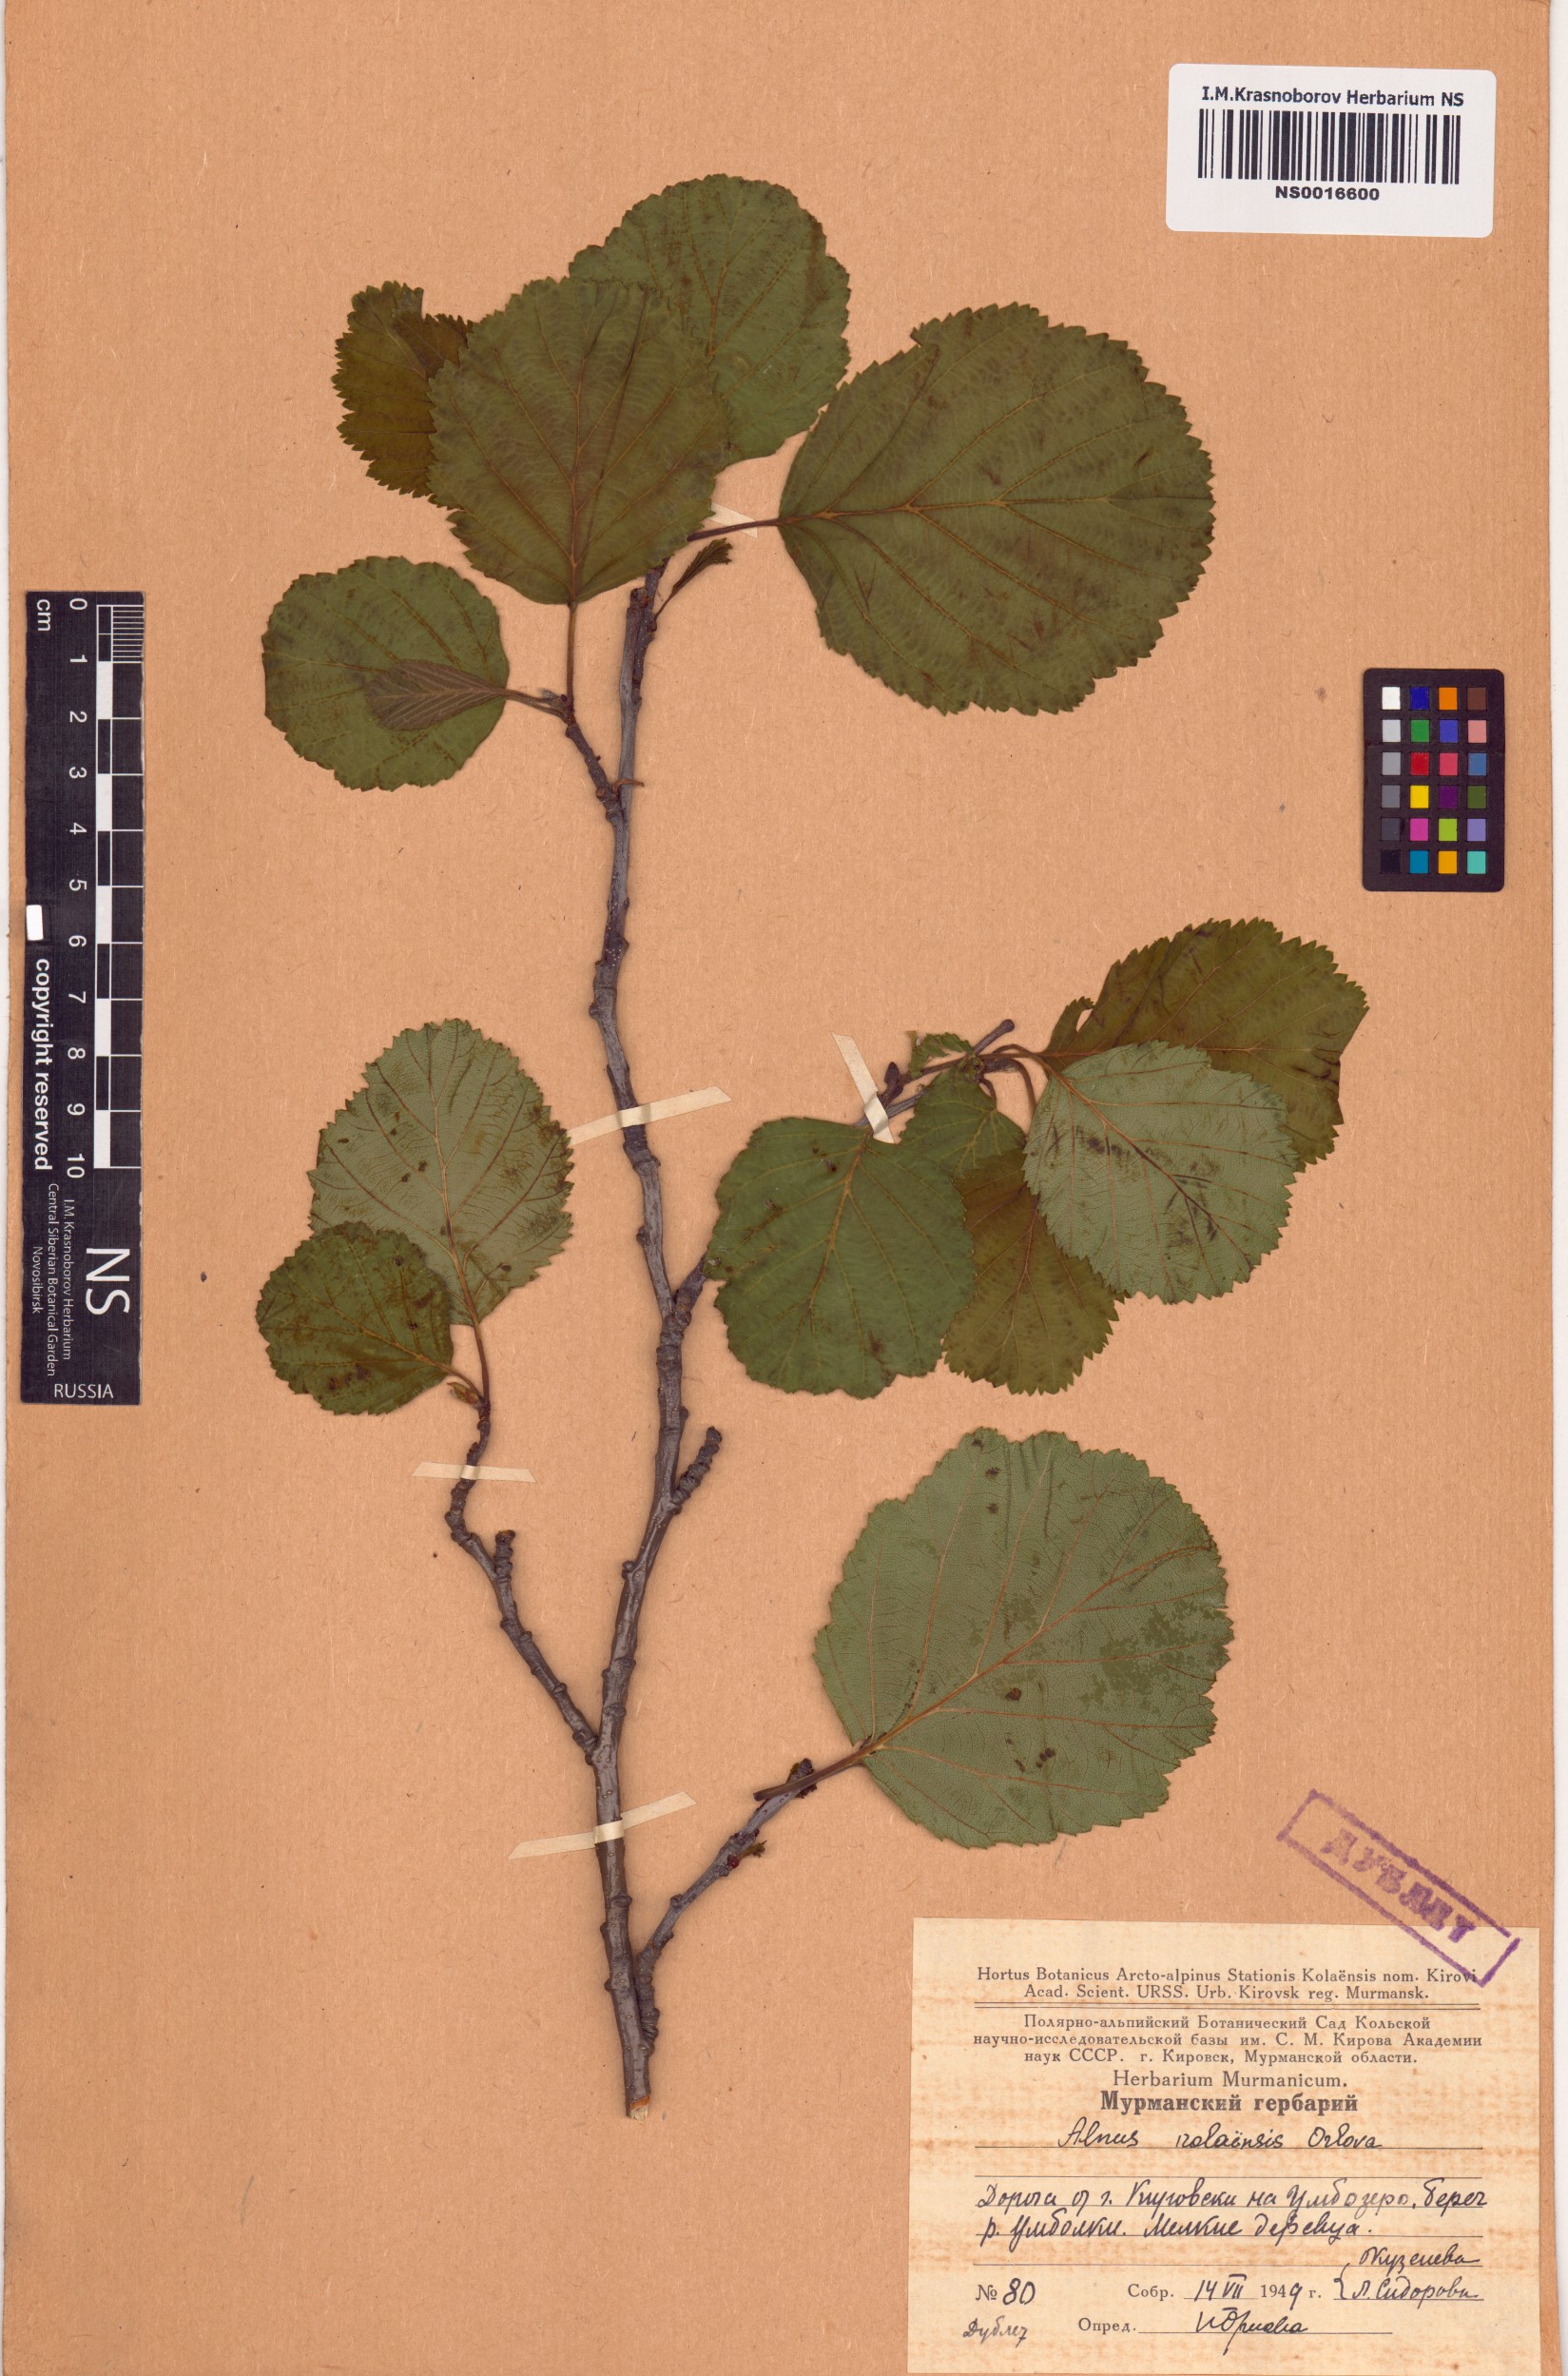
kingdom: Plantae
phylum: Tracheophyta
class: Magnoliopsida
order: Fagales
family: Betulaceae
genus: Alnus
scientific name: Alnus incana
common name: Grey alder
